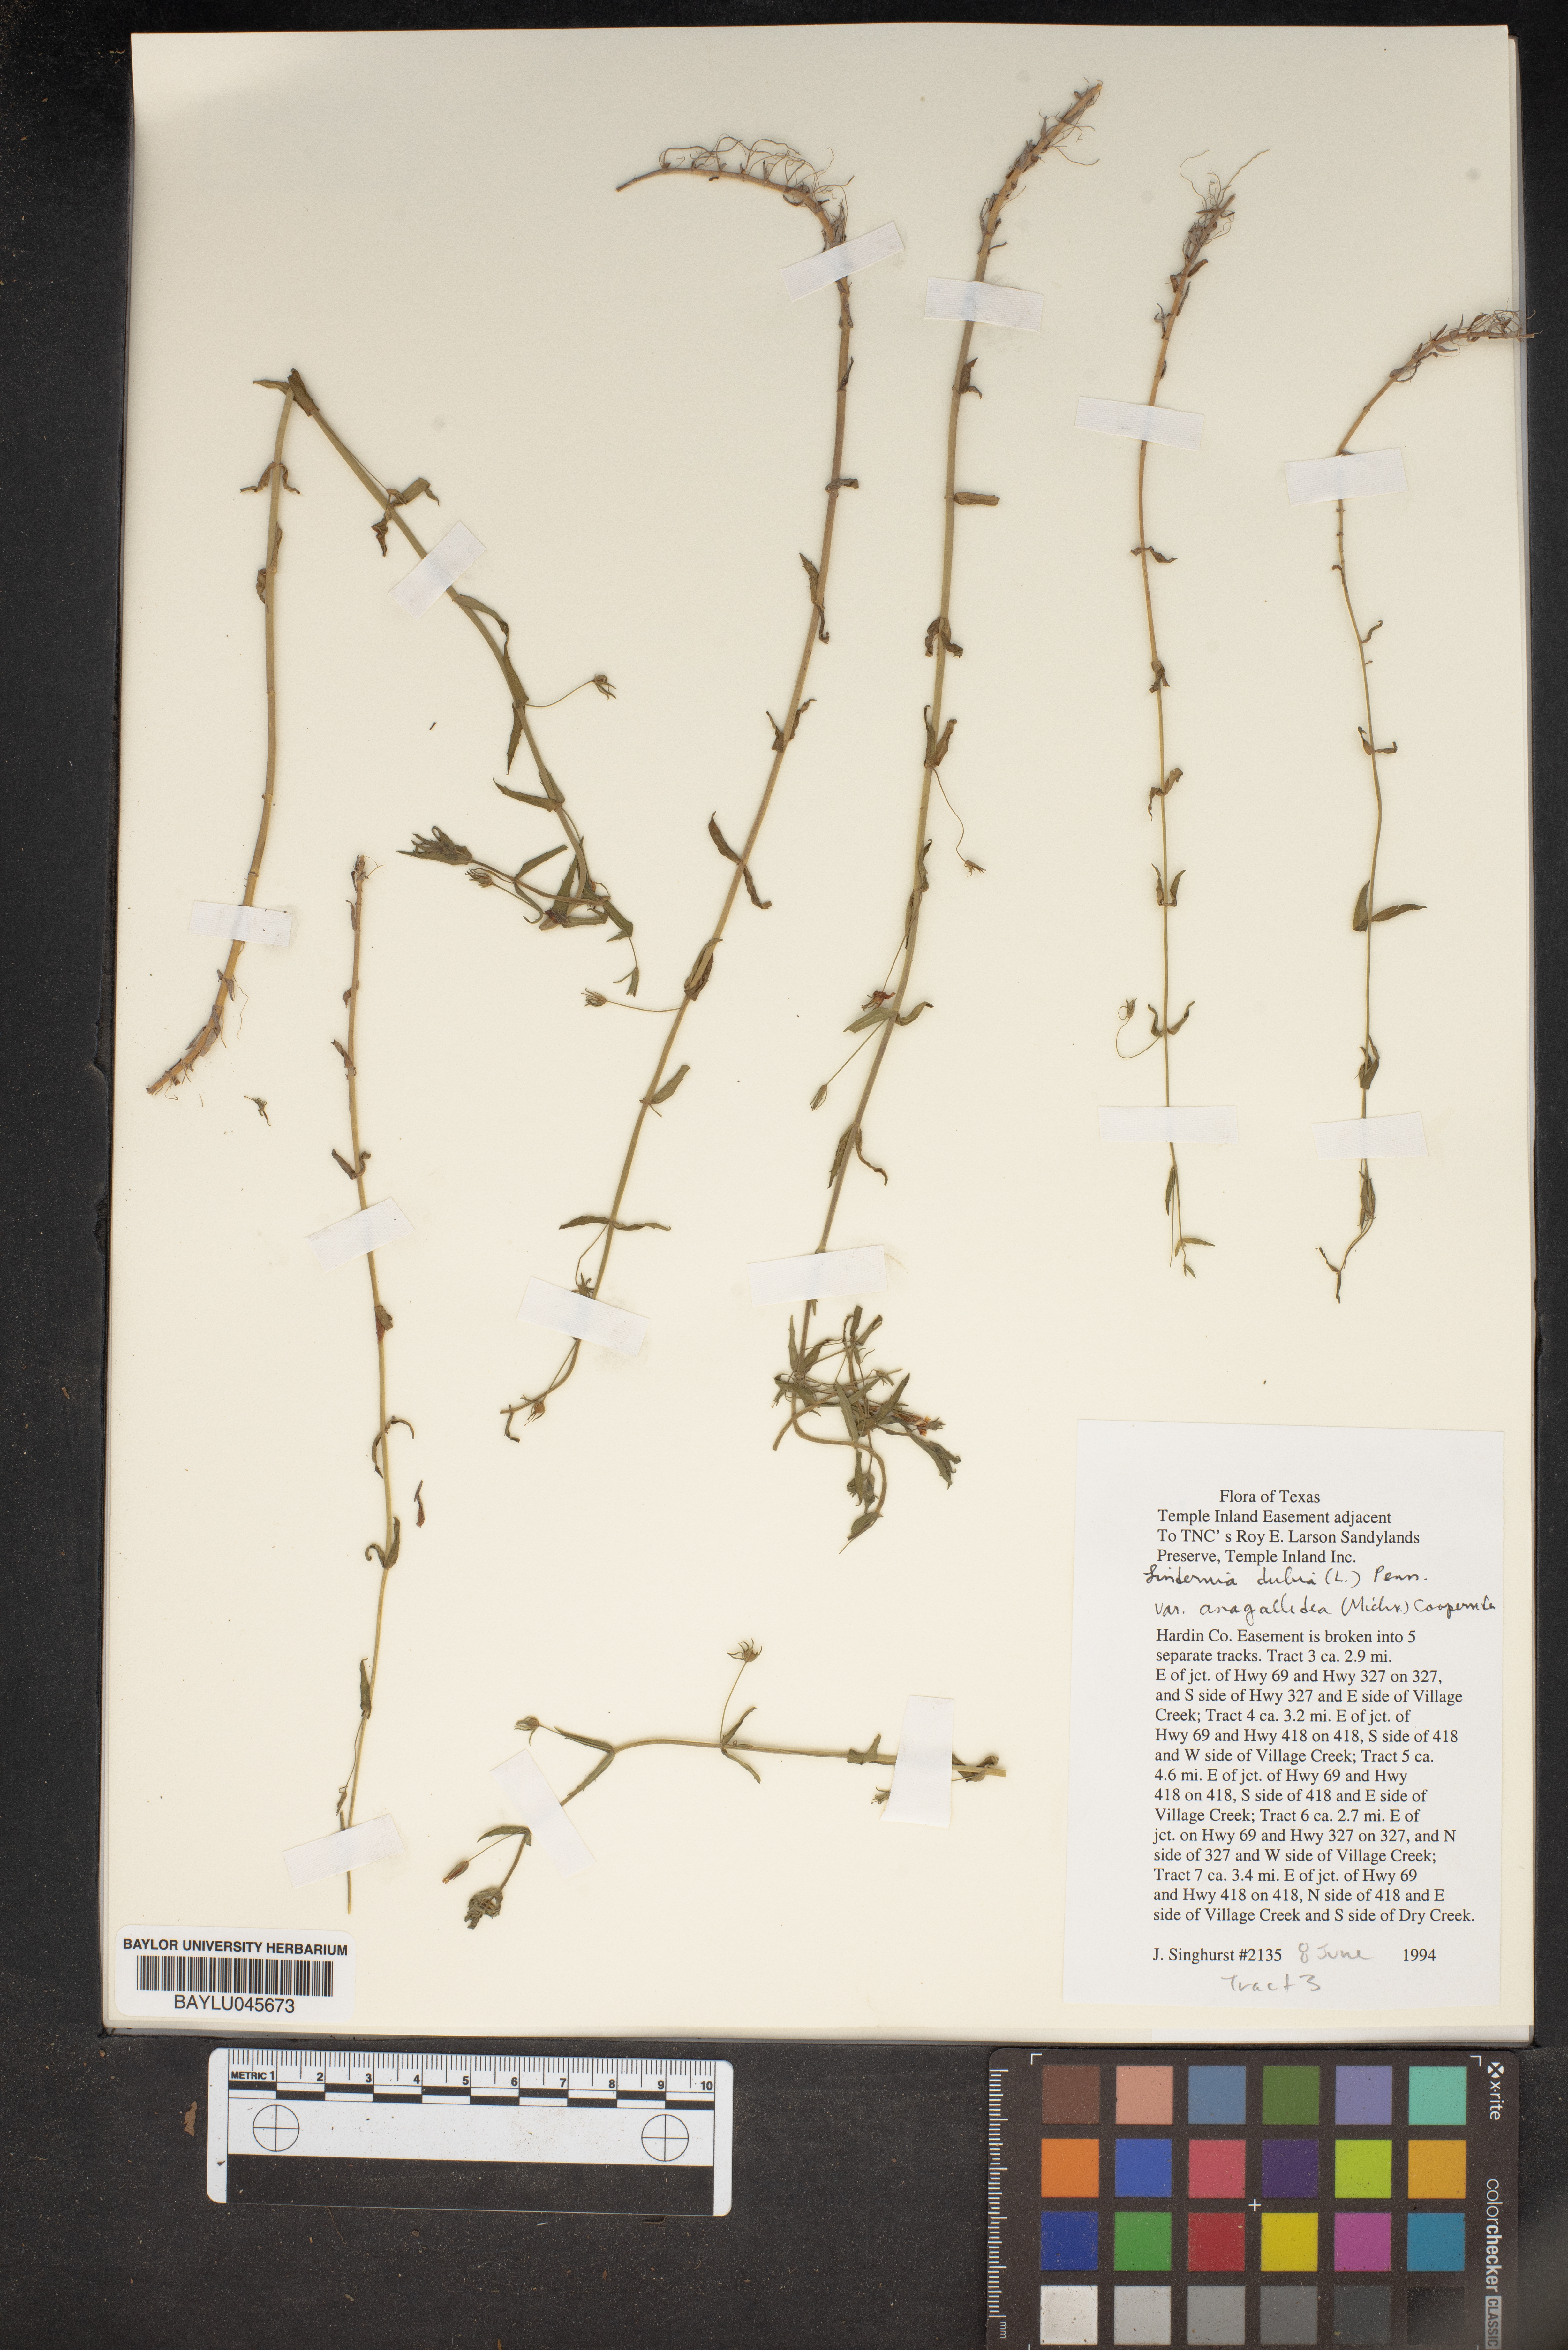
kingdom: Plantae
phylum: Tracheophyta
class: Magnoliopsida
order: Lamiales
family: Linderniaceae
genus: Lindernia
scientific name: Lindernia dubia
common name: Annual false pimpernel
